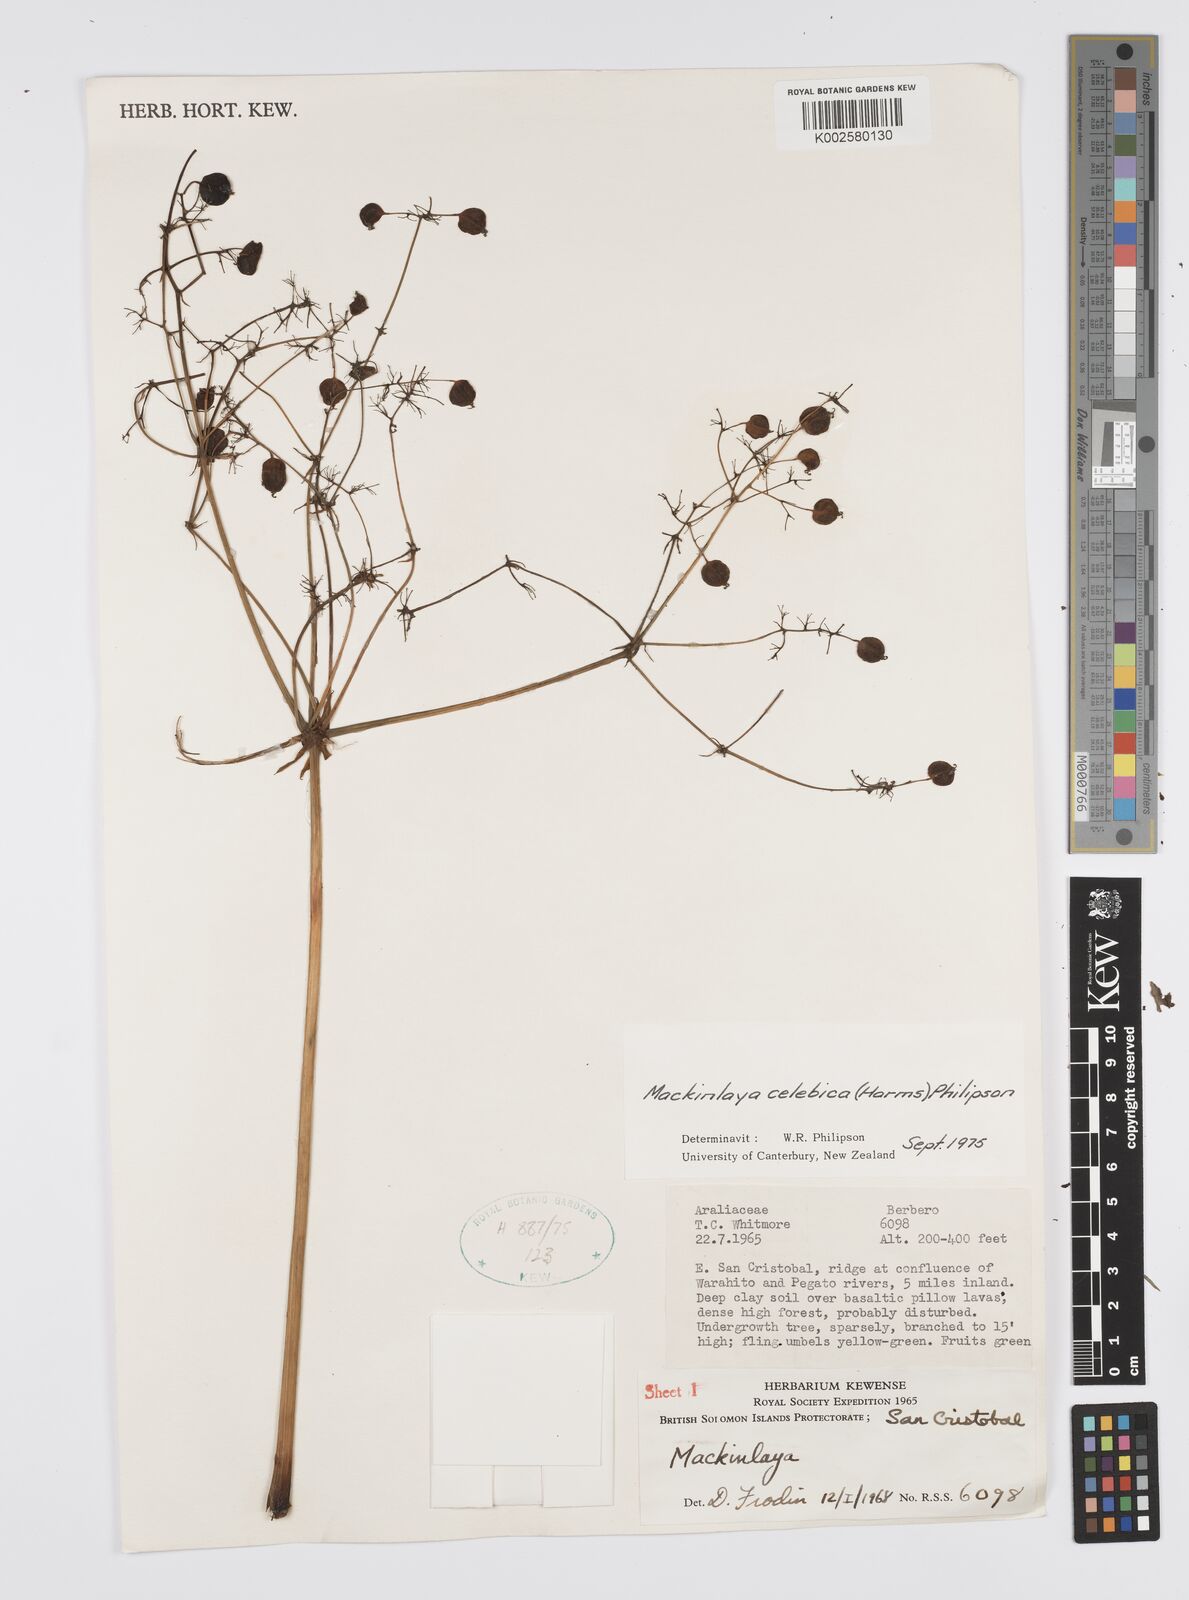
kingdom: Plantae
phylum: Tracheophyta
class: Magnoliopsida
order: Apiales
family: Apiaceae
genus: Mackinlaya
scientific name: Mackinlaya celebica
